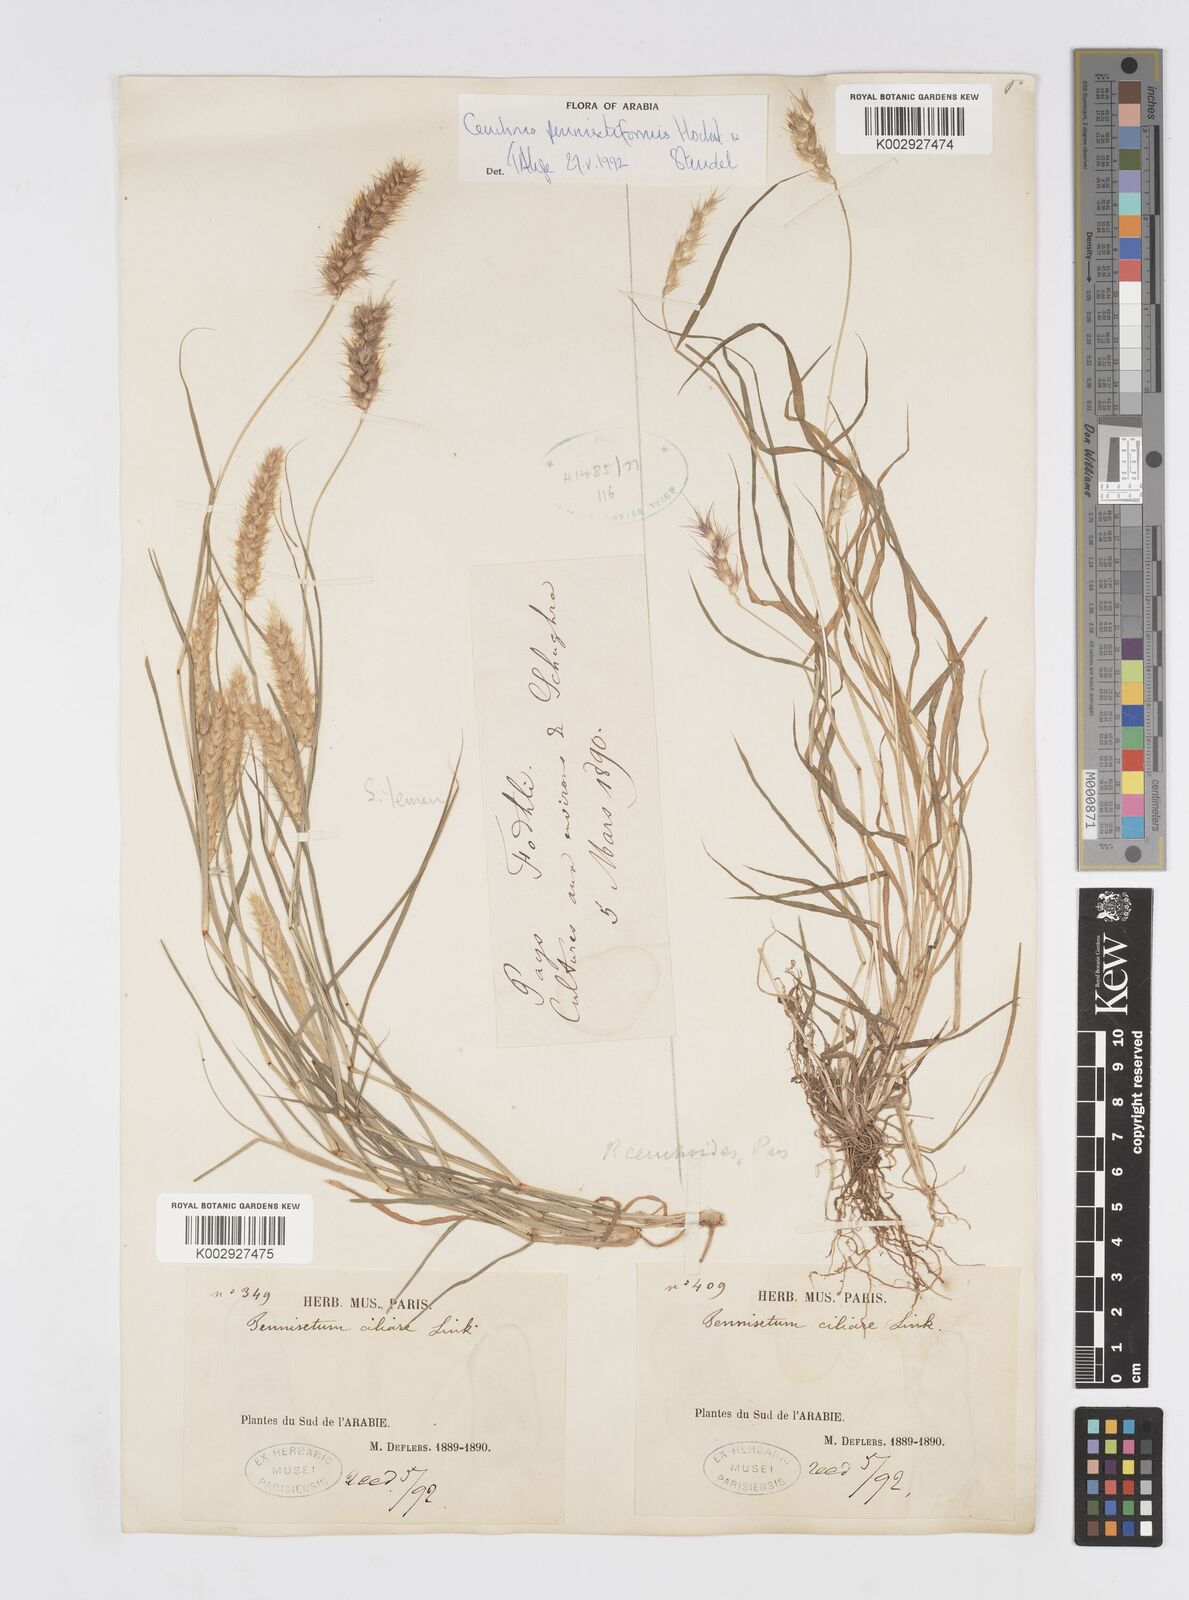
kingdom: Plantae
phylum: Tracheophyta
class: Liliopsida
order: Poales
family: Poaceae
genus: Cenchrus
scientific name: Cenchrus pennisetiformis
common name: Cloncurry
